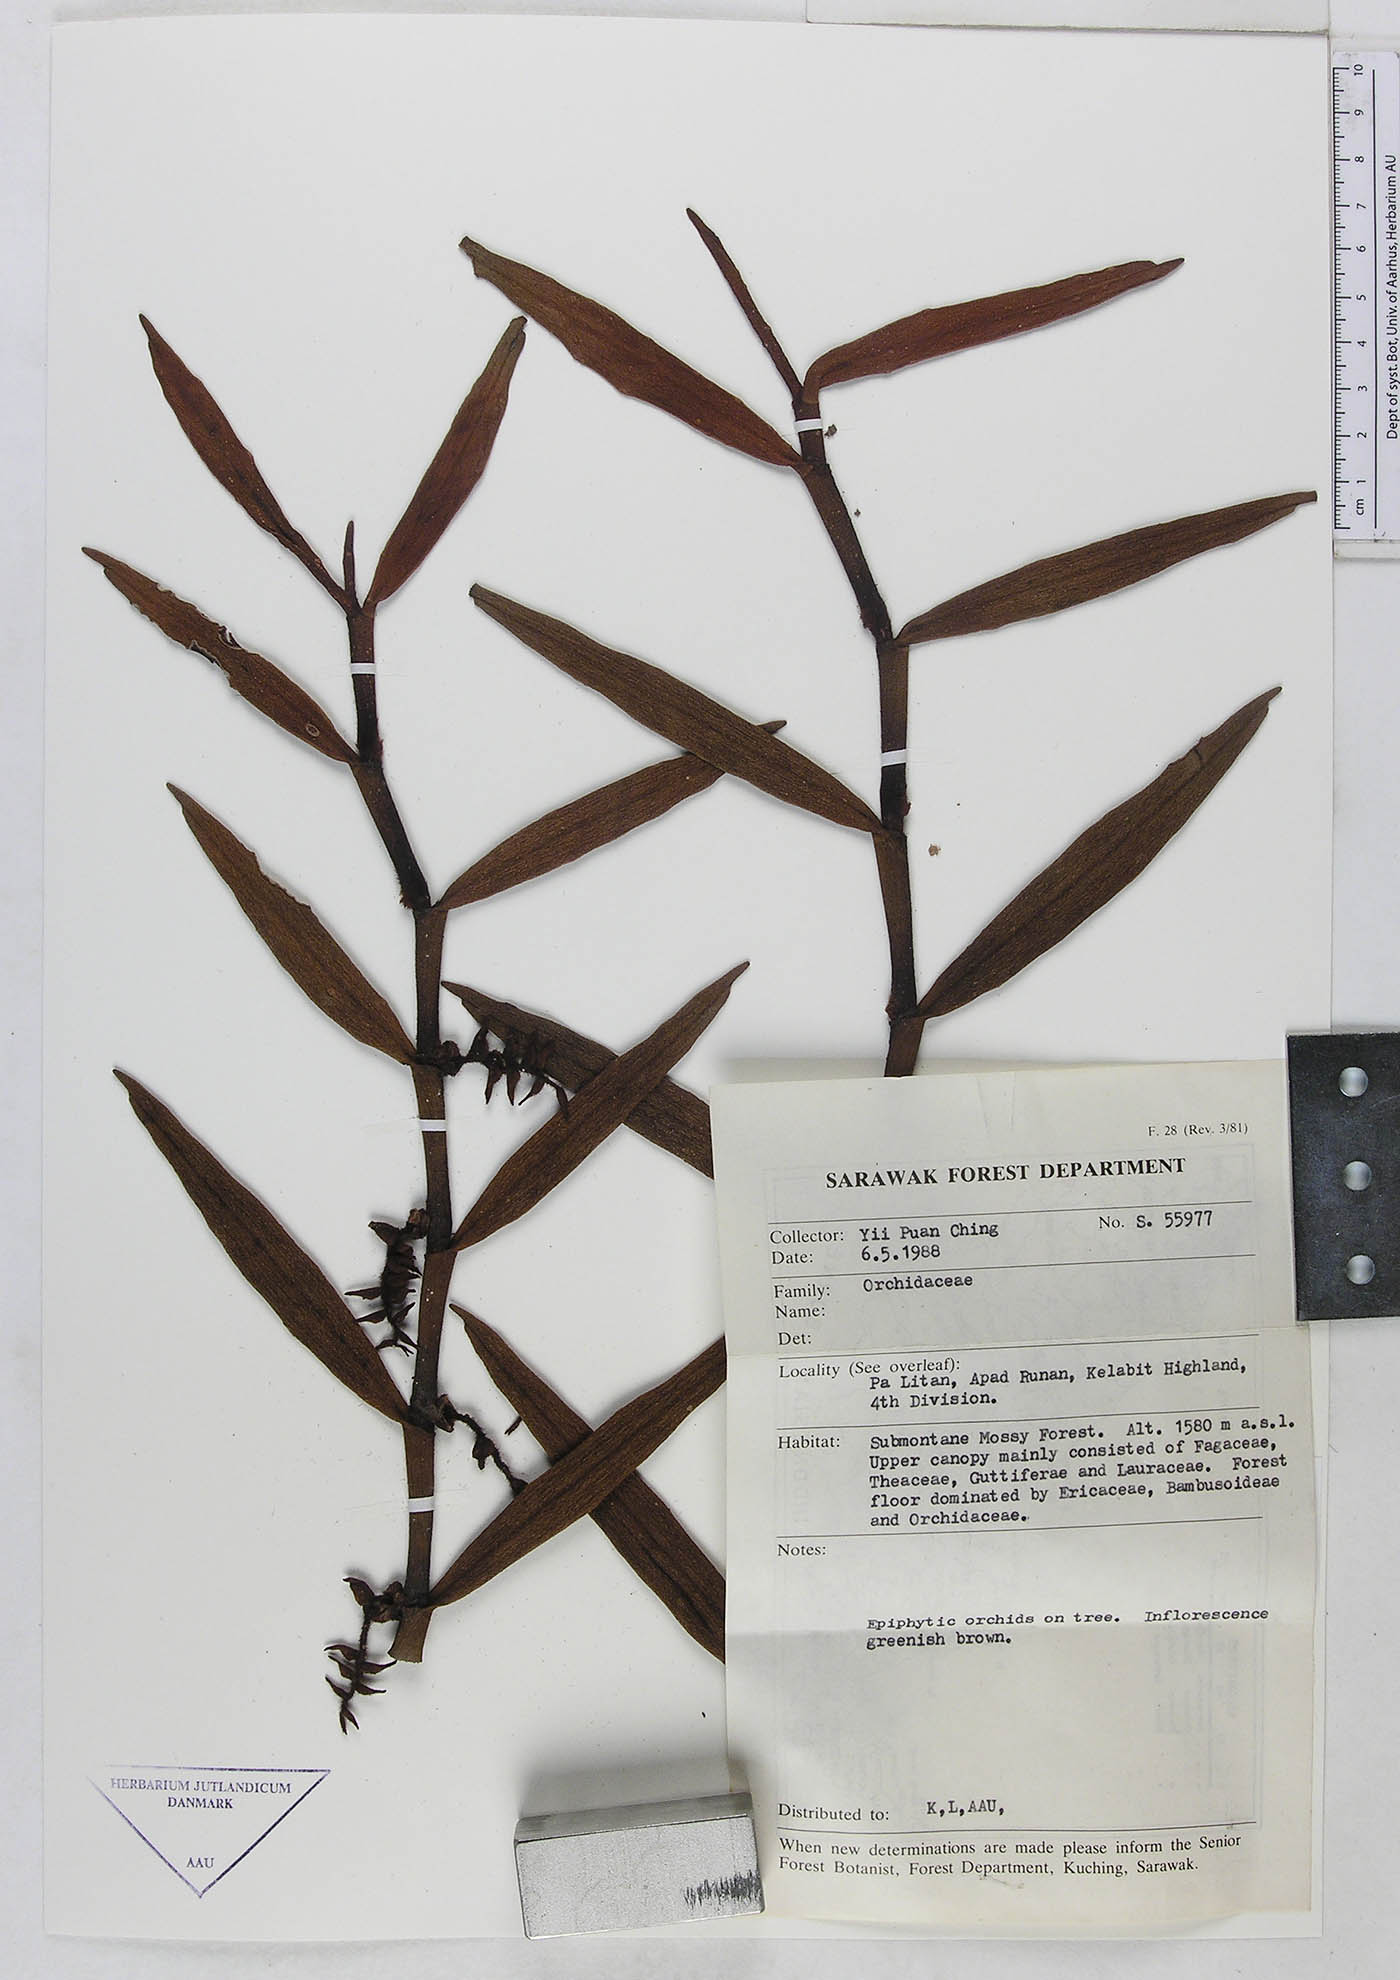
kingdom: Plantae
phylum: Tracheophyta
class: Liliopsida
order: Asparagales
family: Orchidaceae
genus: Trichotosia
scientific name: Trichotosia
